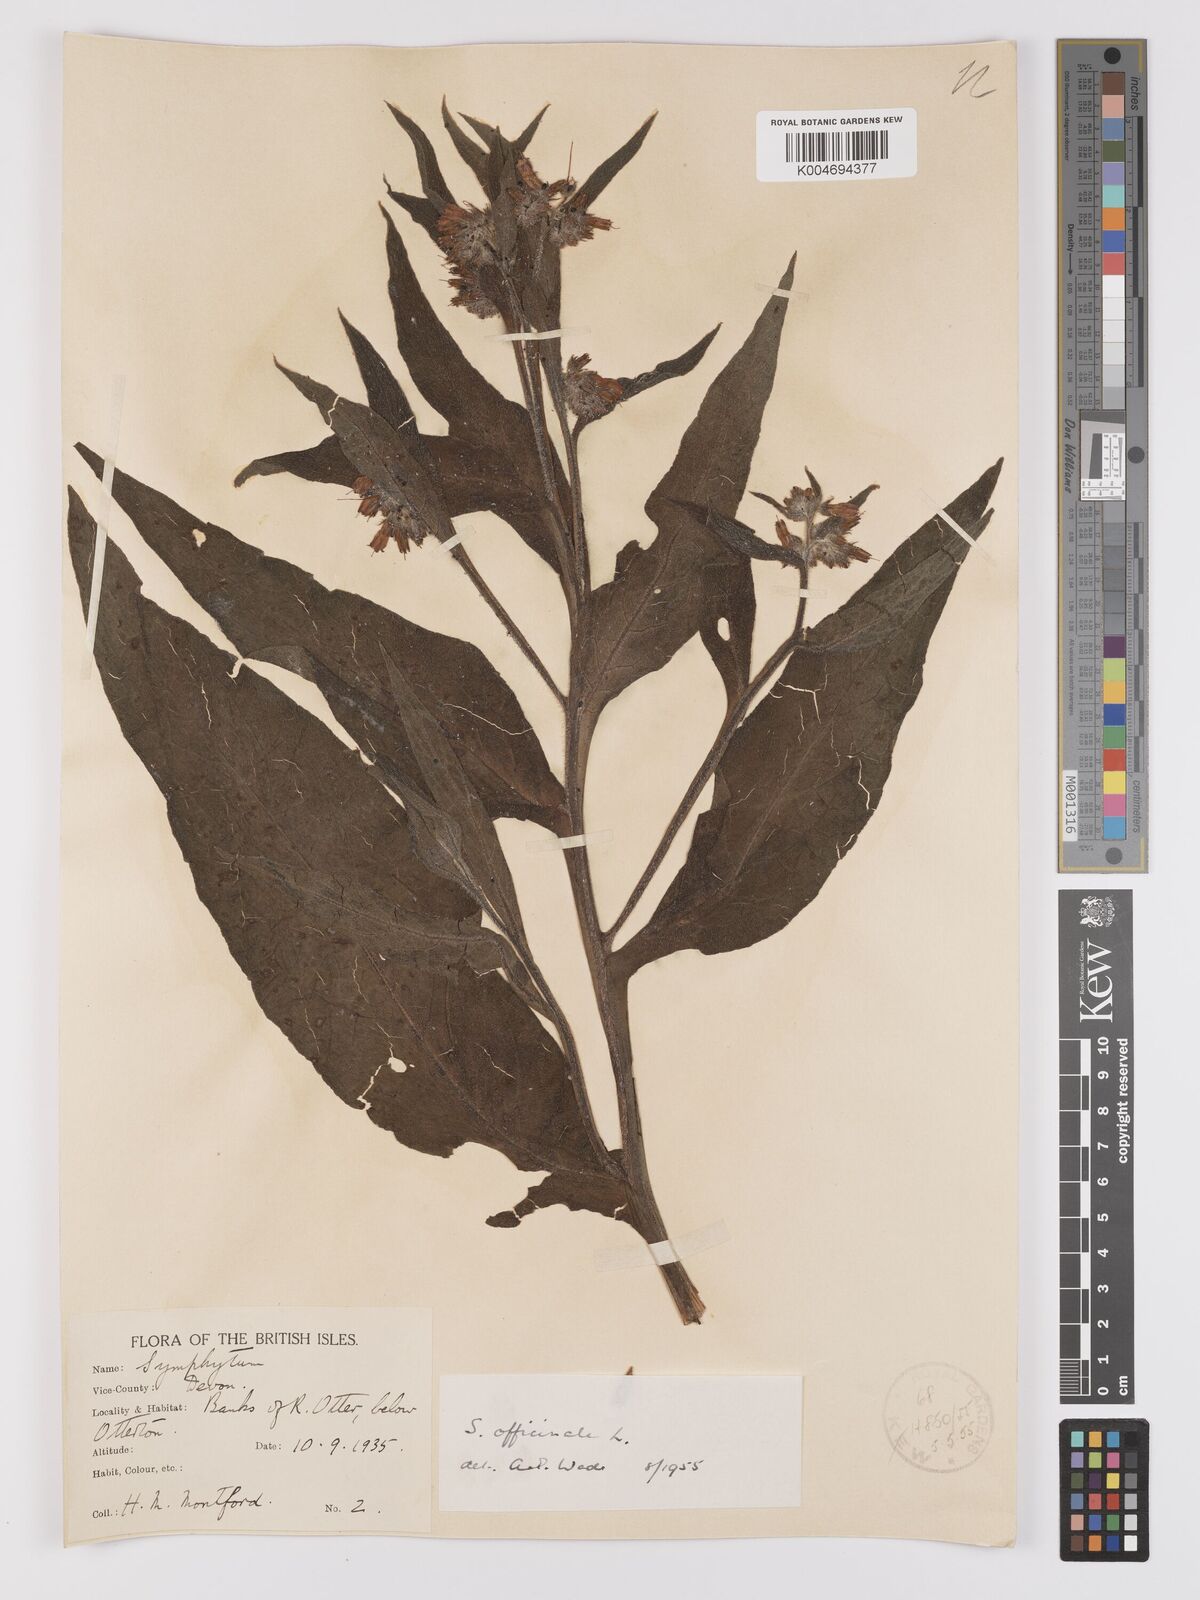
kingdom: Plantae
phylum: Tracheophyta
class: Magnoliopsida
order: Boraginales
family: Boraginaceae
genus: Symphytum
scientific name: Symphytum officinale
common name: Common comfrey
